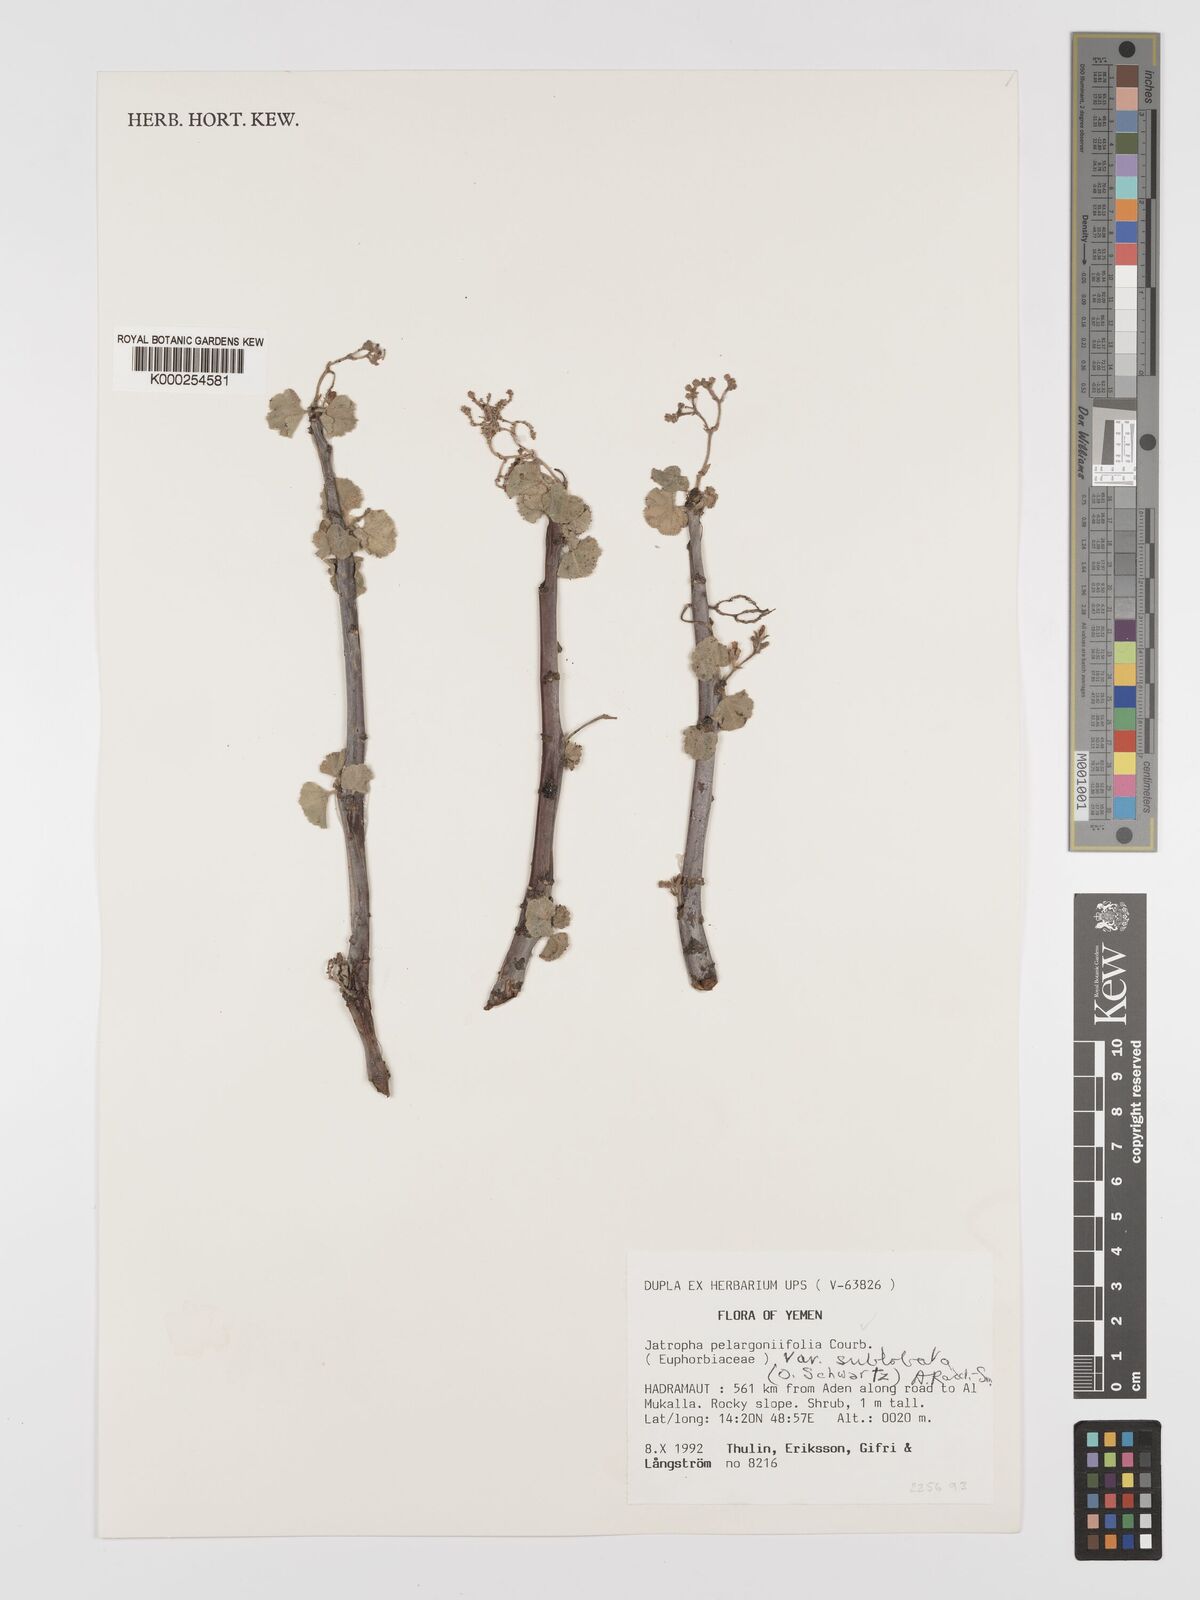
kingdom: Plantae
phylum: Tracheophyta
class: Magnoliopsida
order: Malpighiales
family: Euphorbiaceae
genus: Jatropha
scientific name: Jatropha pelargoniifolia
